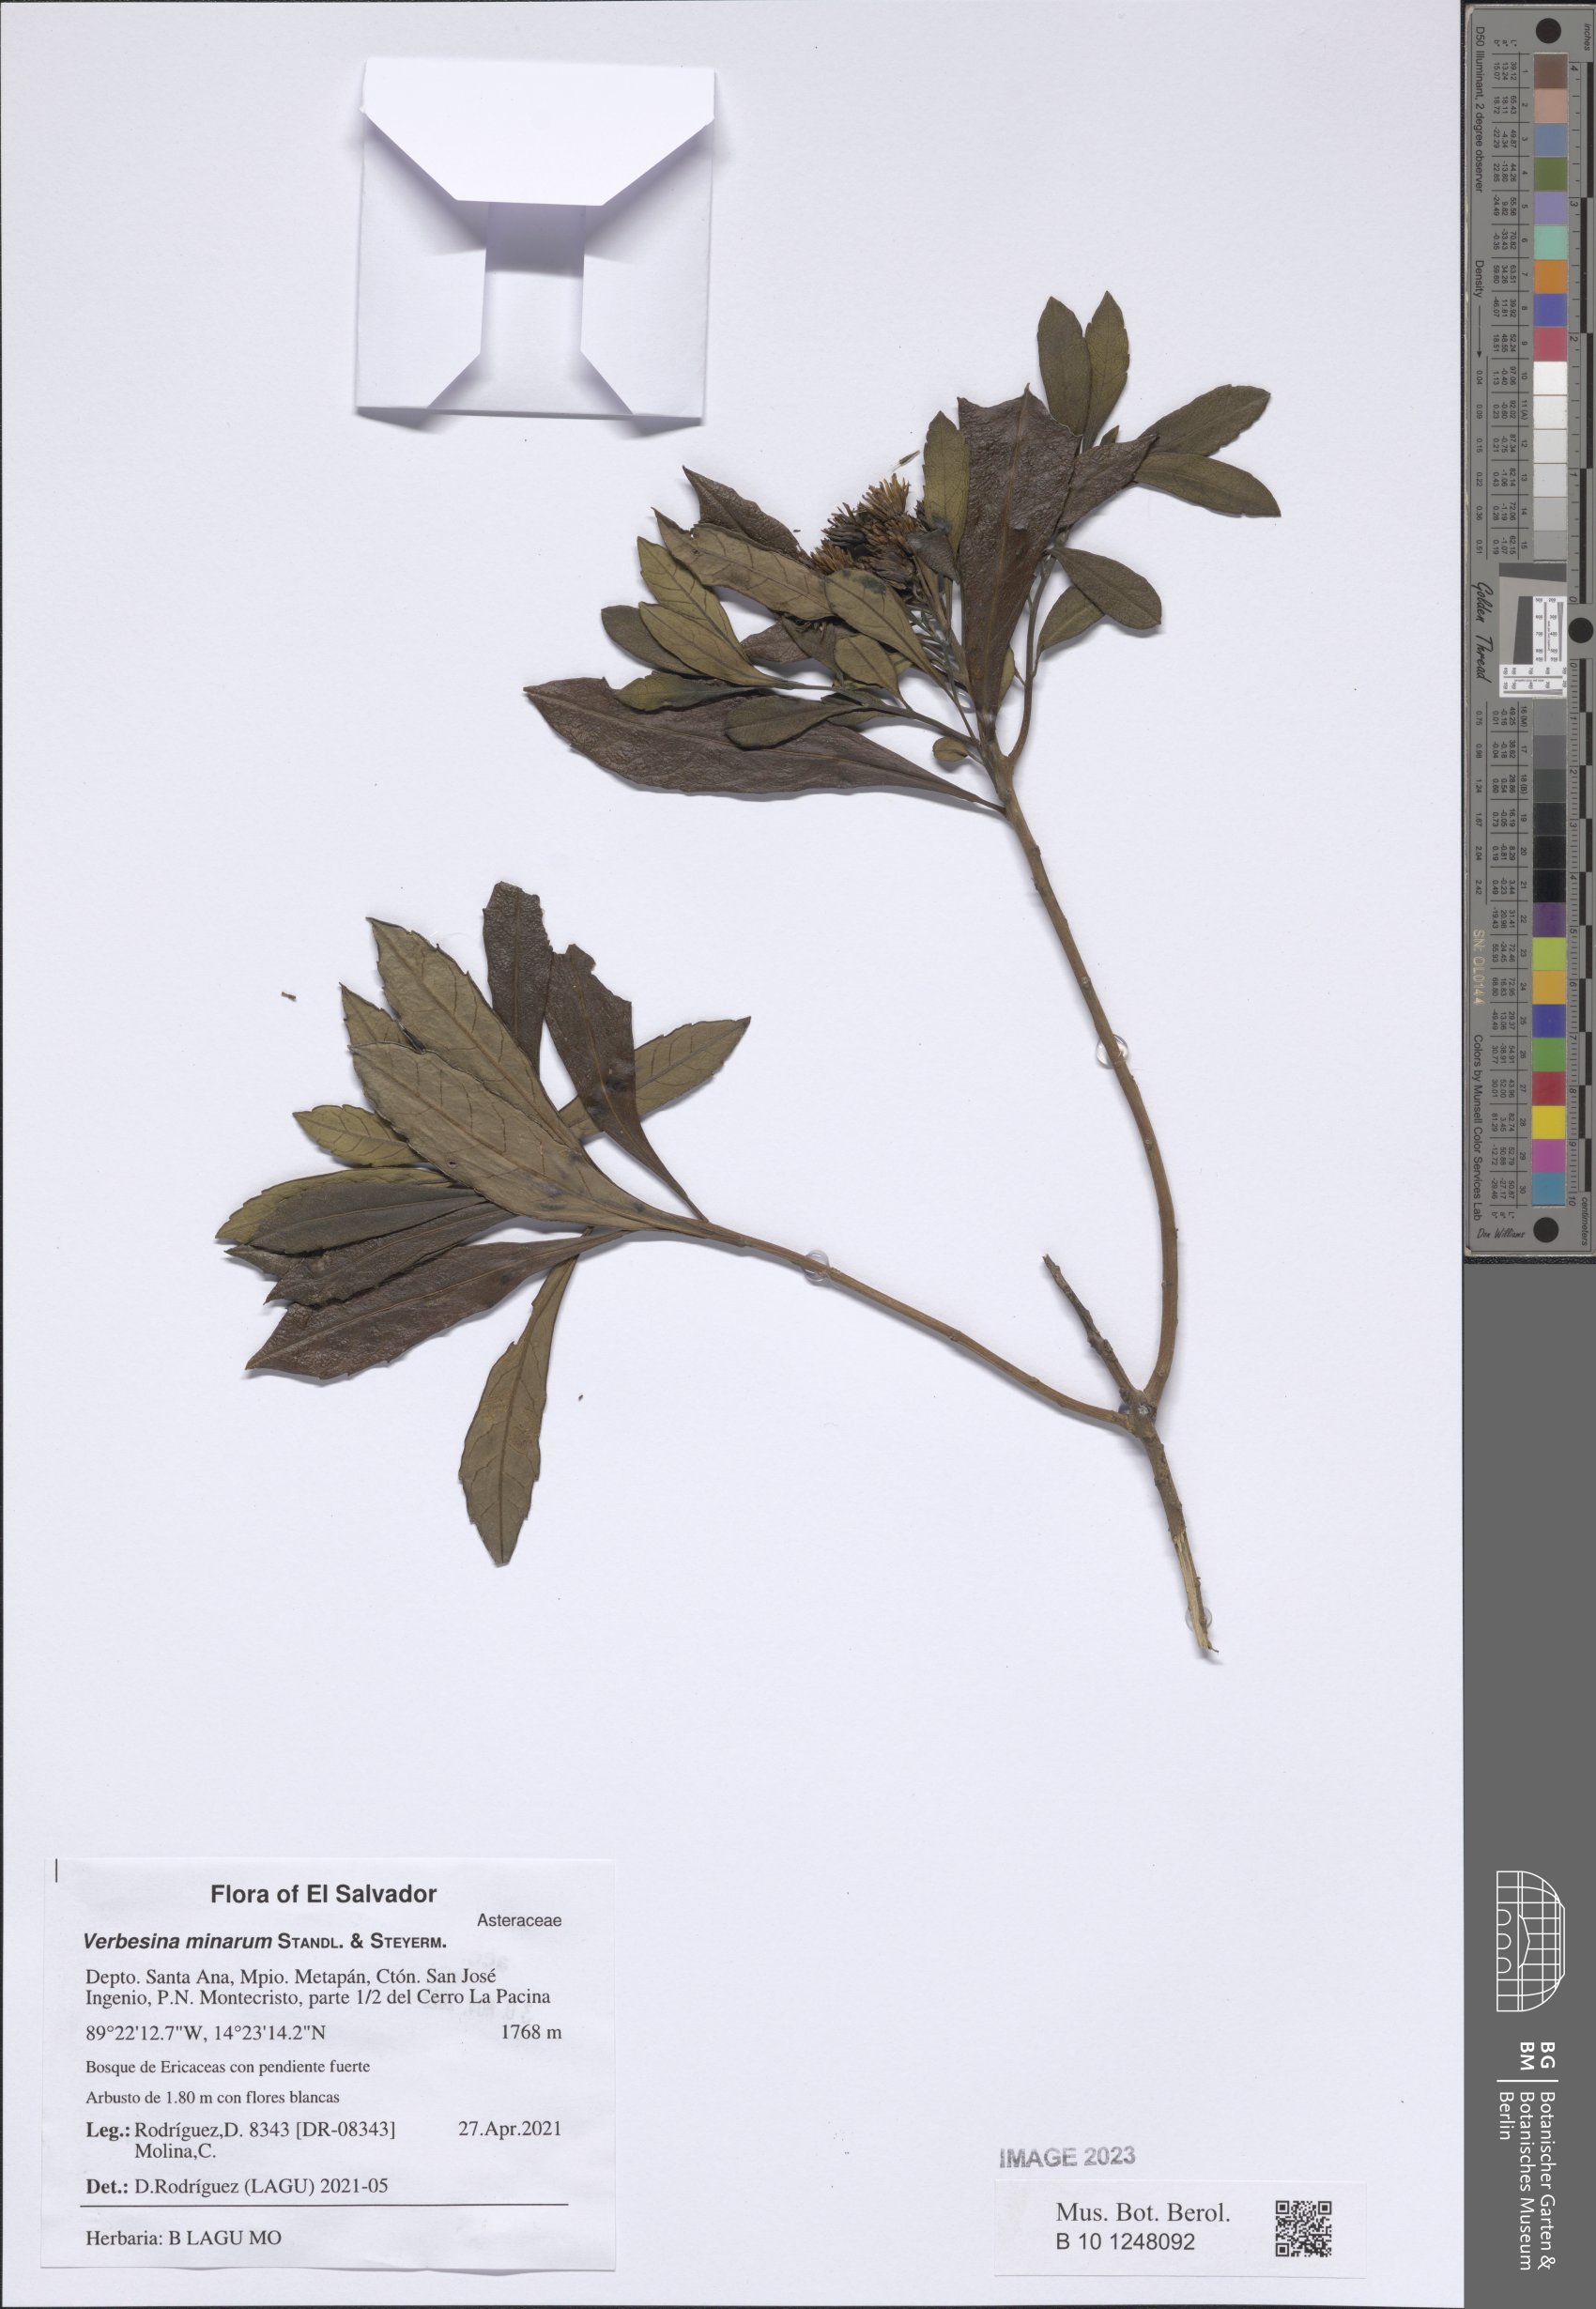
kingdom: Plantae
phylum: Tracheophyta
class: Magnoliopsida
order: Asterales
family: Asteraceae
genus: Verbesina
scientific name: Verbesina minarum
